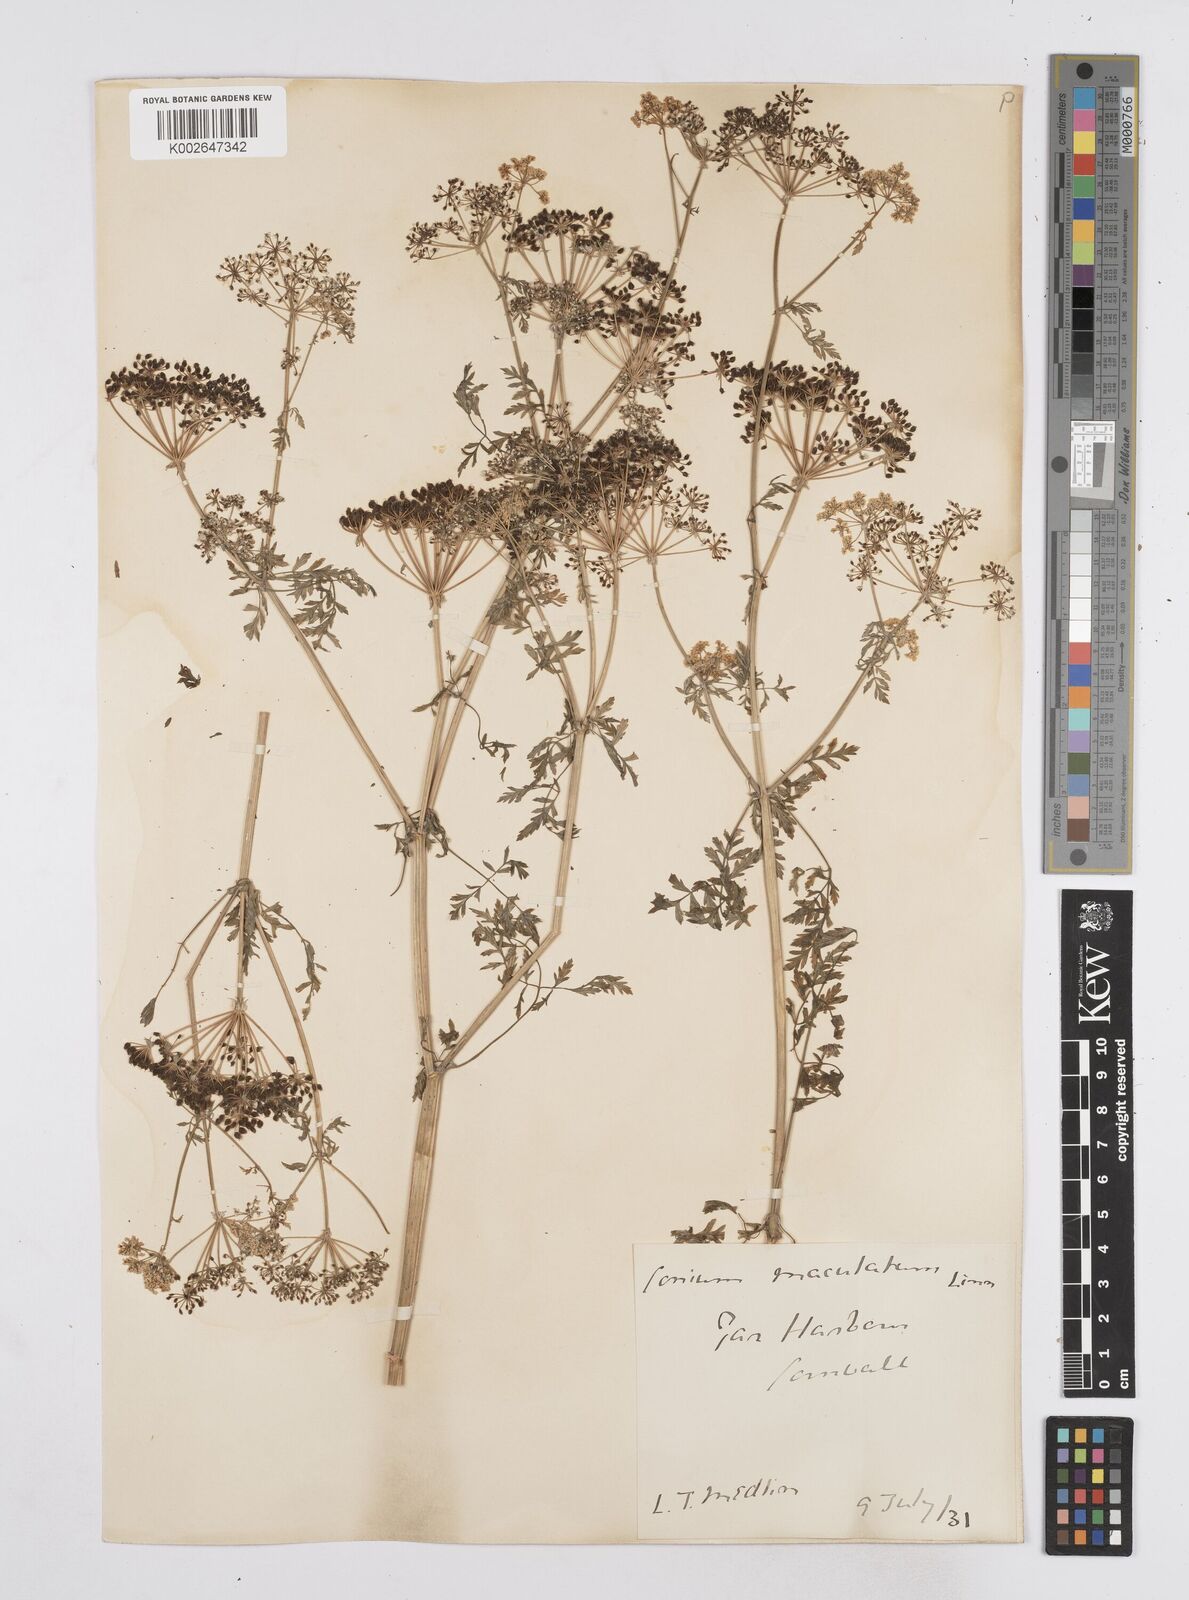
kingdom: Plantae
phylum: Tracheophyta
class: Magnoliopsida
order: Apiales
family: Apiaceae
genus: Conium
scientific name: Conium maculatum
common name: Hemlock
